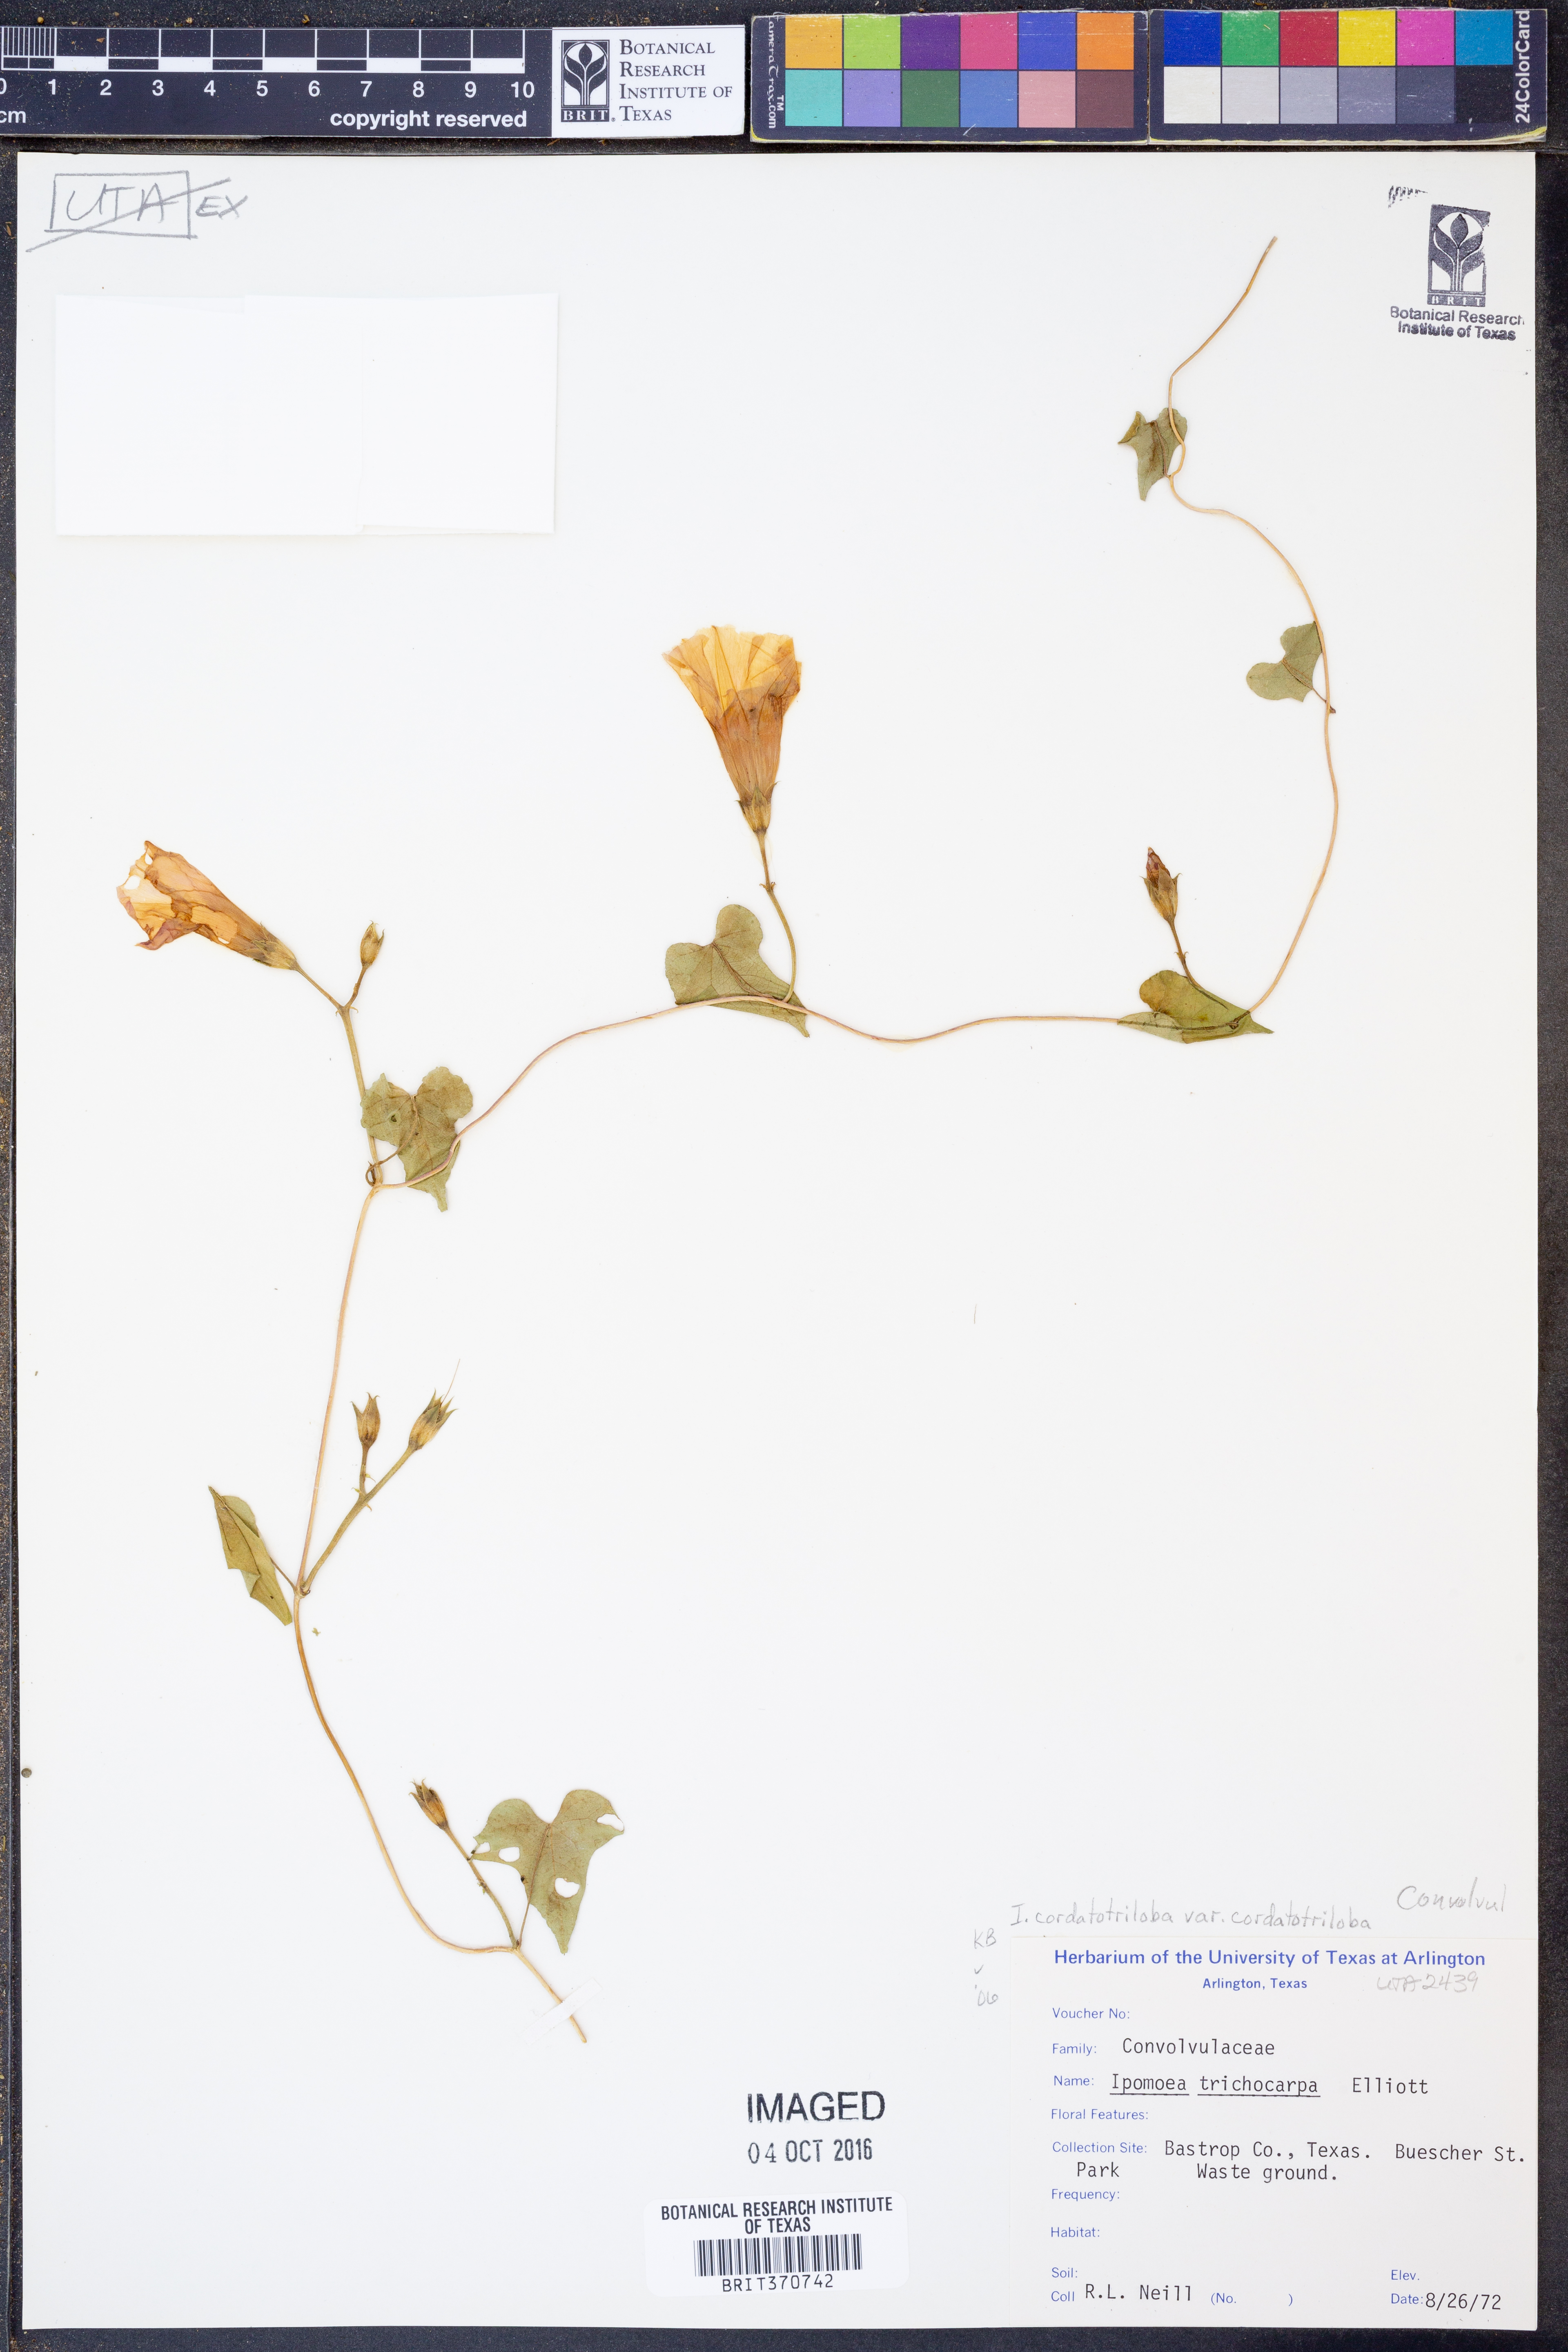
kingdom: Plantae
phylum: Tracheophyta
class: Magnoliopsida
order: Solanales
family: Convolvulaceae
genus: Ipomoea
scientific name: Ipomoea cordatotriloba
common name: Cotton morning glory
